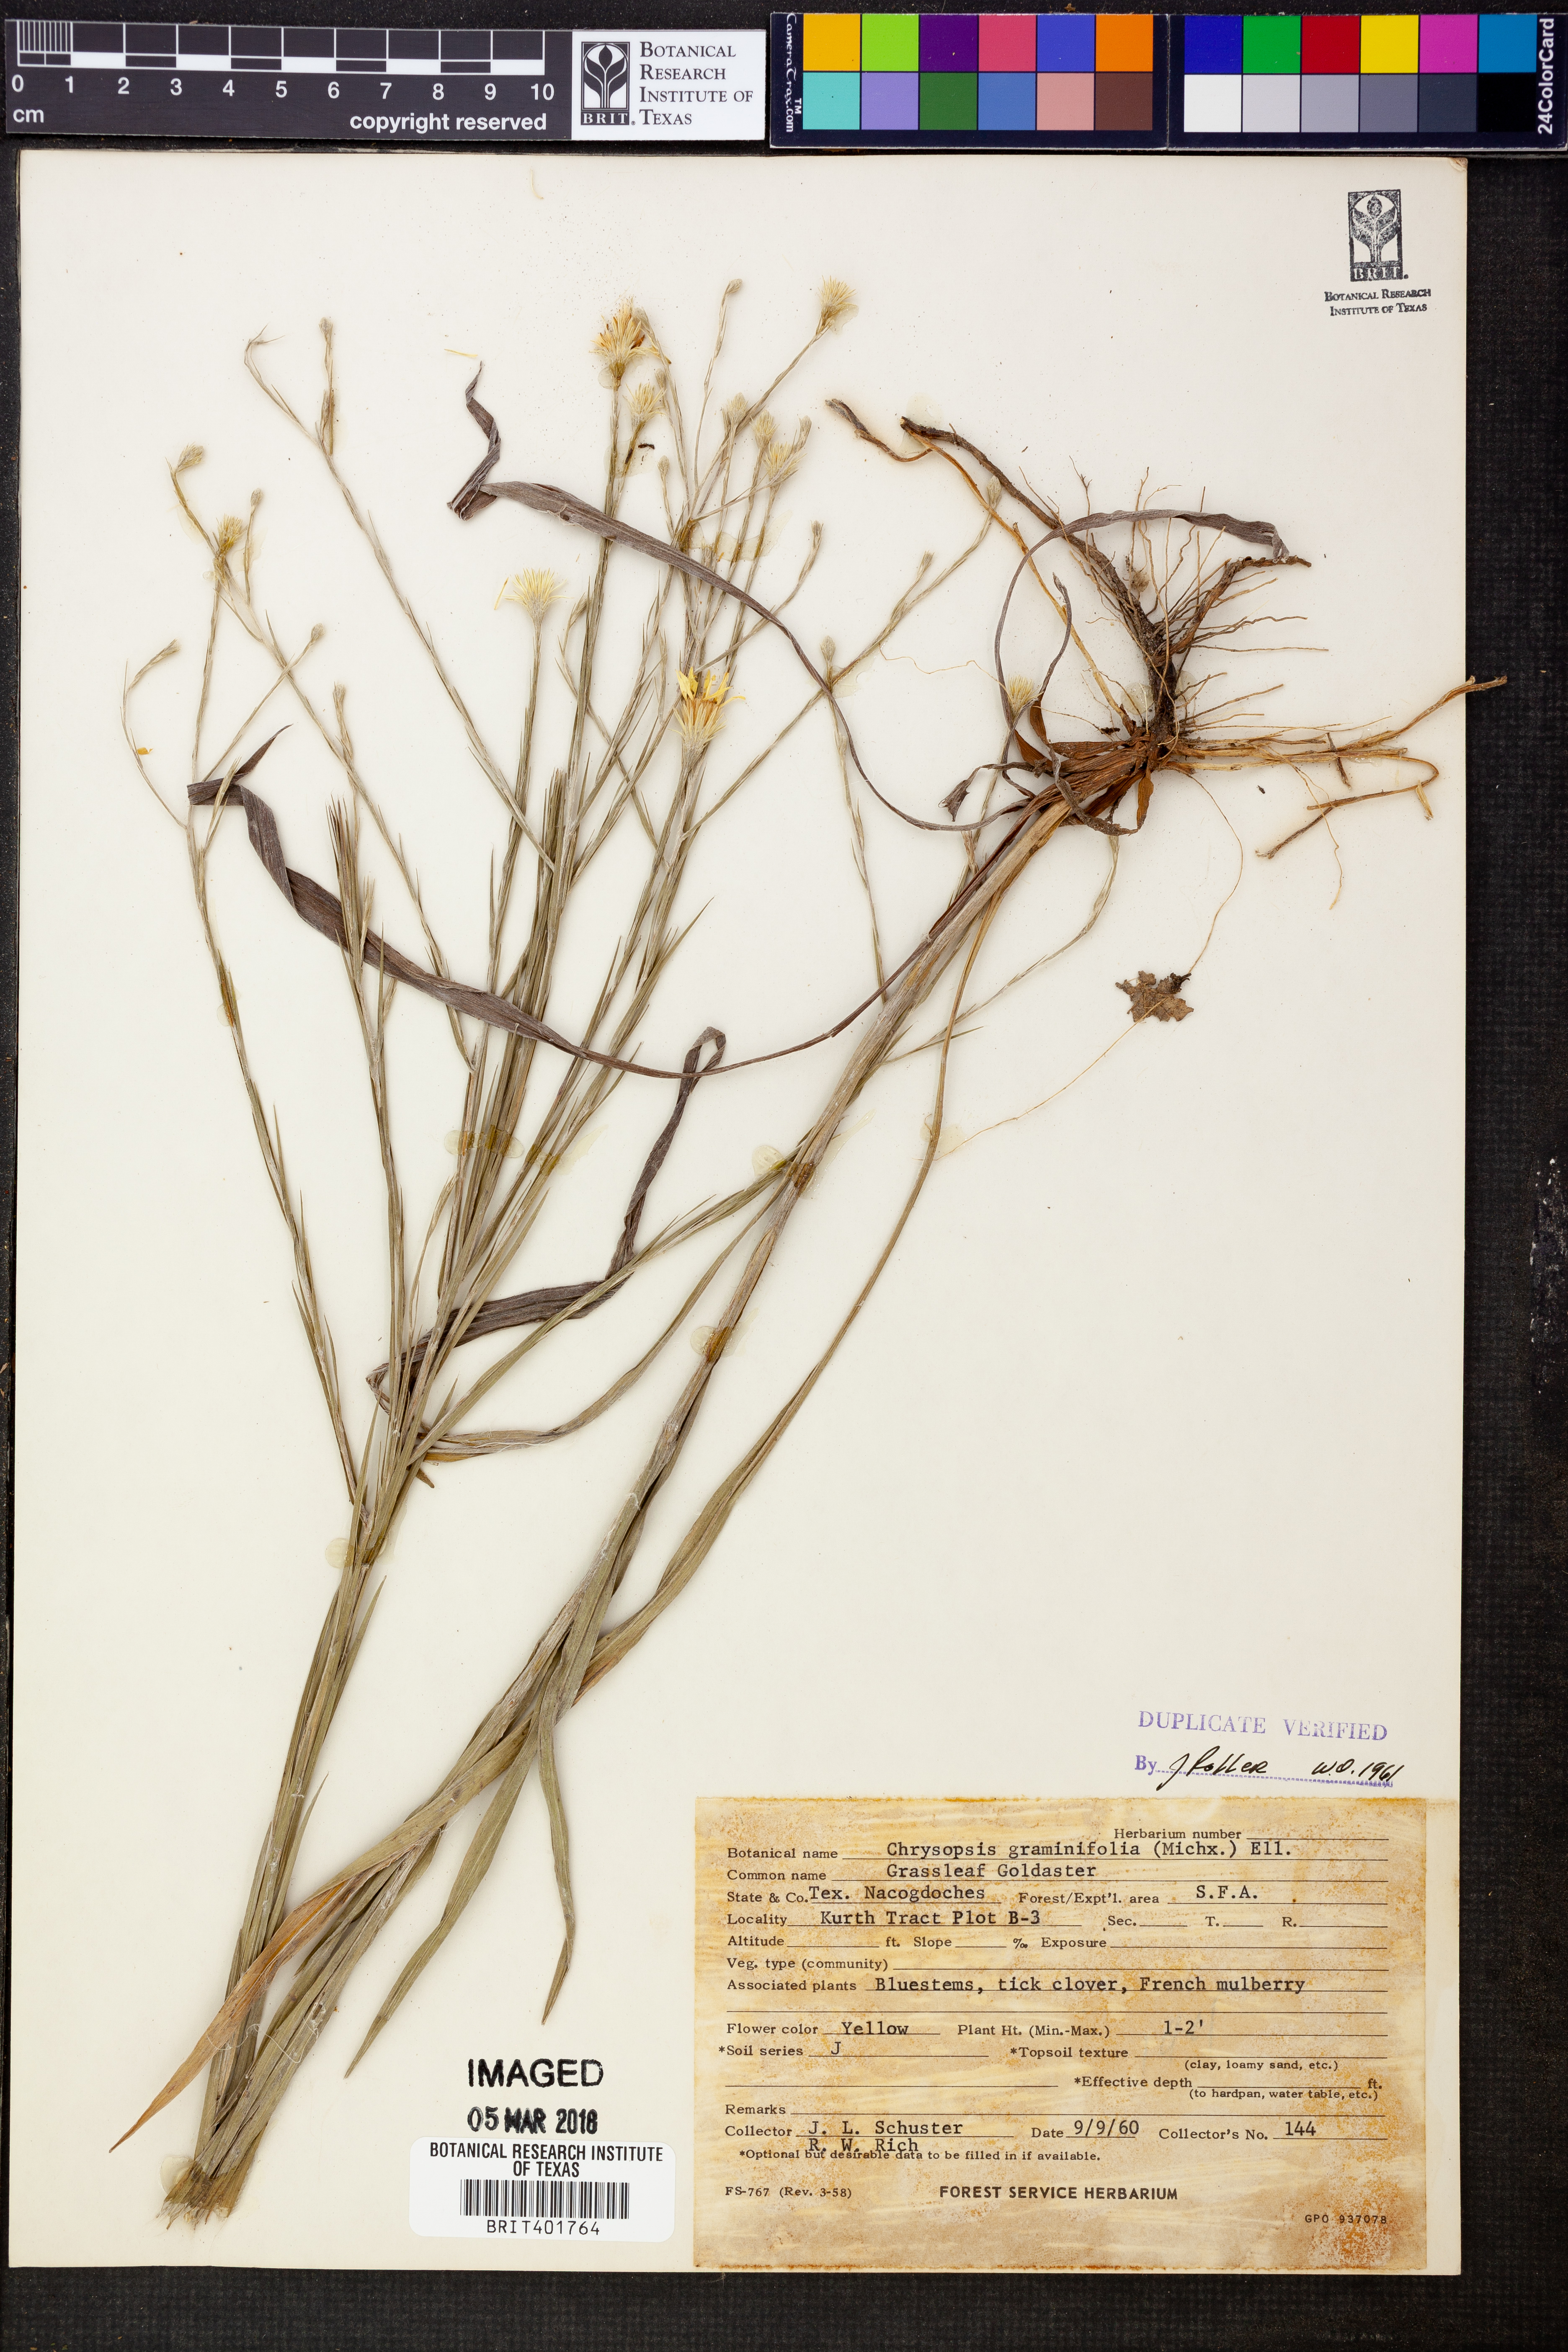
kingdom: Plantae
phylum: Tracheophyta
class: Magnoliopsida
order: Asterales
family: Asteraceae
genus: Pityopsis
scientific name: Pityopsis graminifolia
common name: Grass-leaf golden-aster
